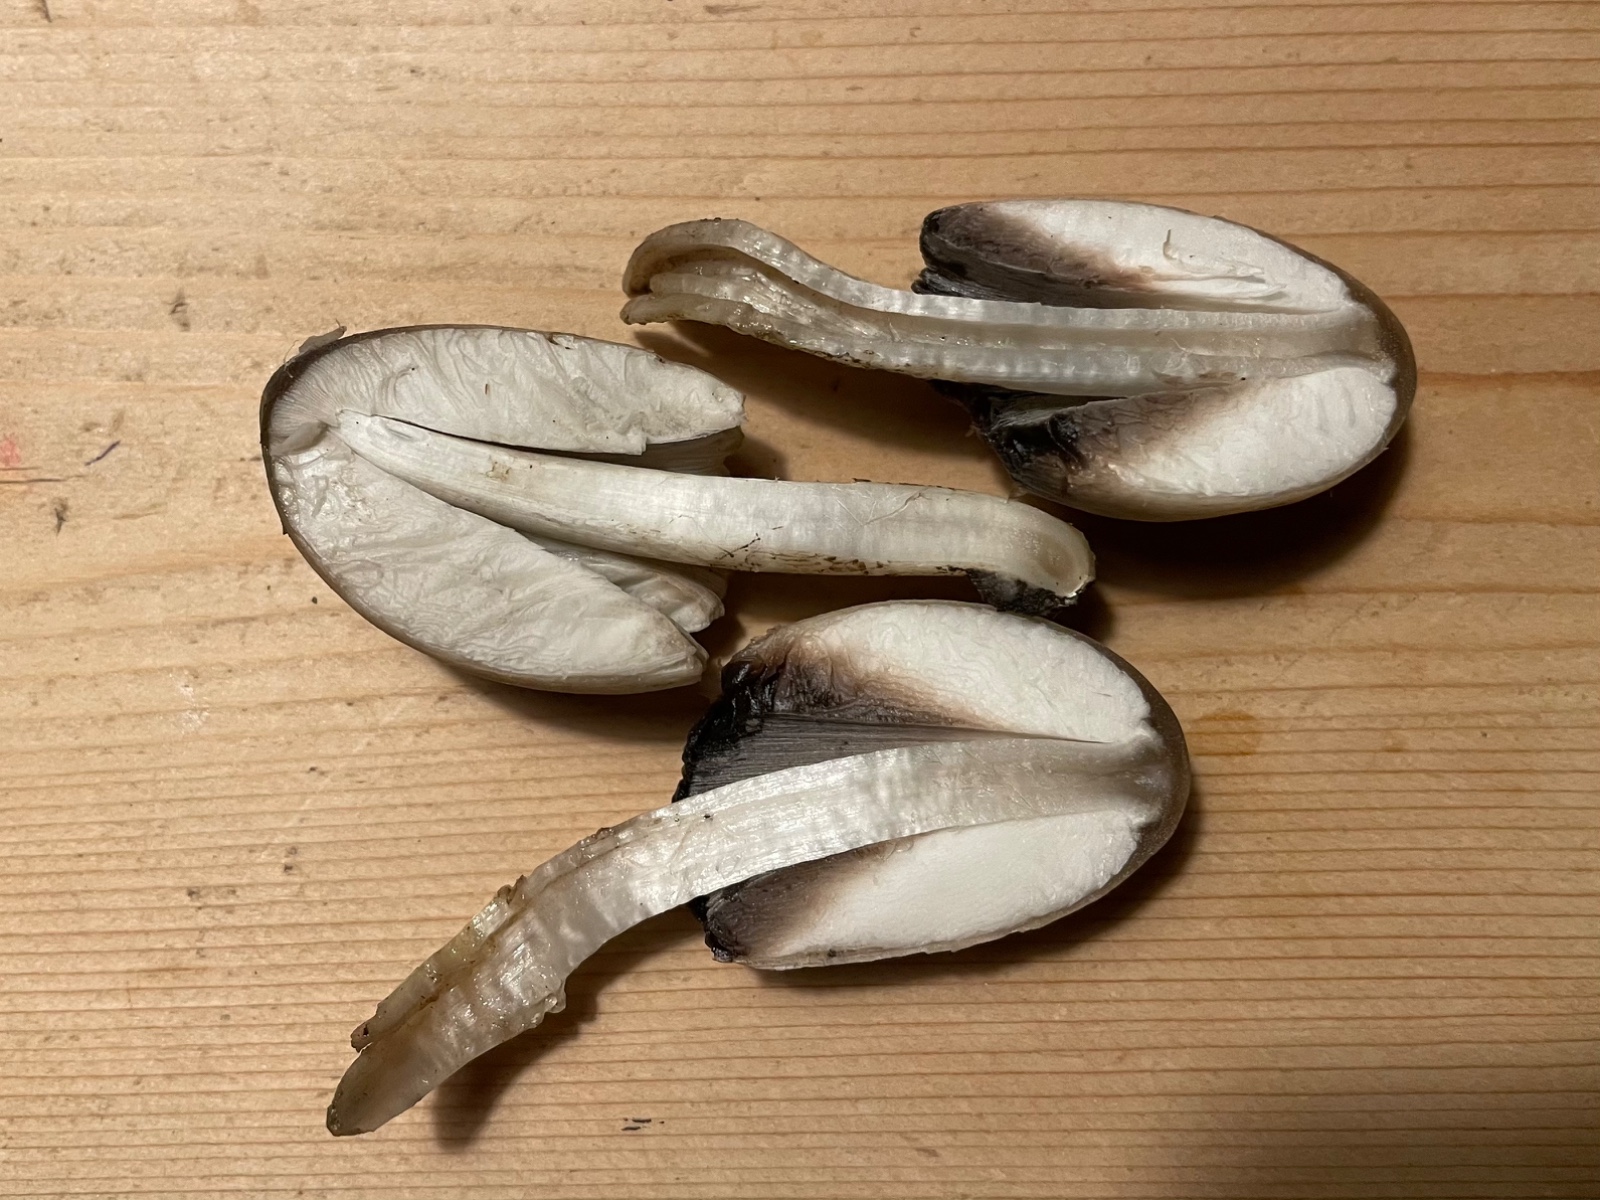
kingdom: Fungi
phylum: Basidiomycota
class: Agaricomycetes
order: Agaricales
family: Psathyrellaceae
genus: Coprinopsis
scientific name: Coprinopsis
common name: blækhat
